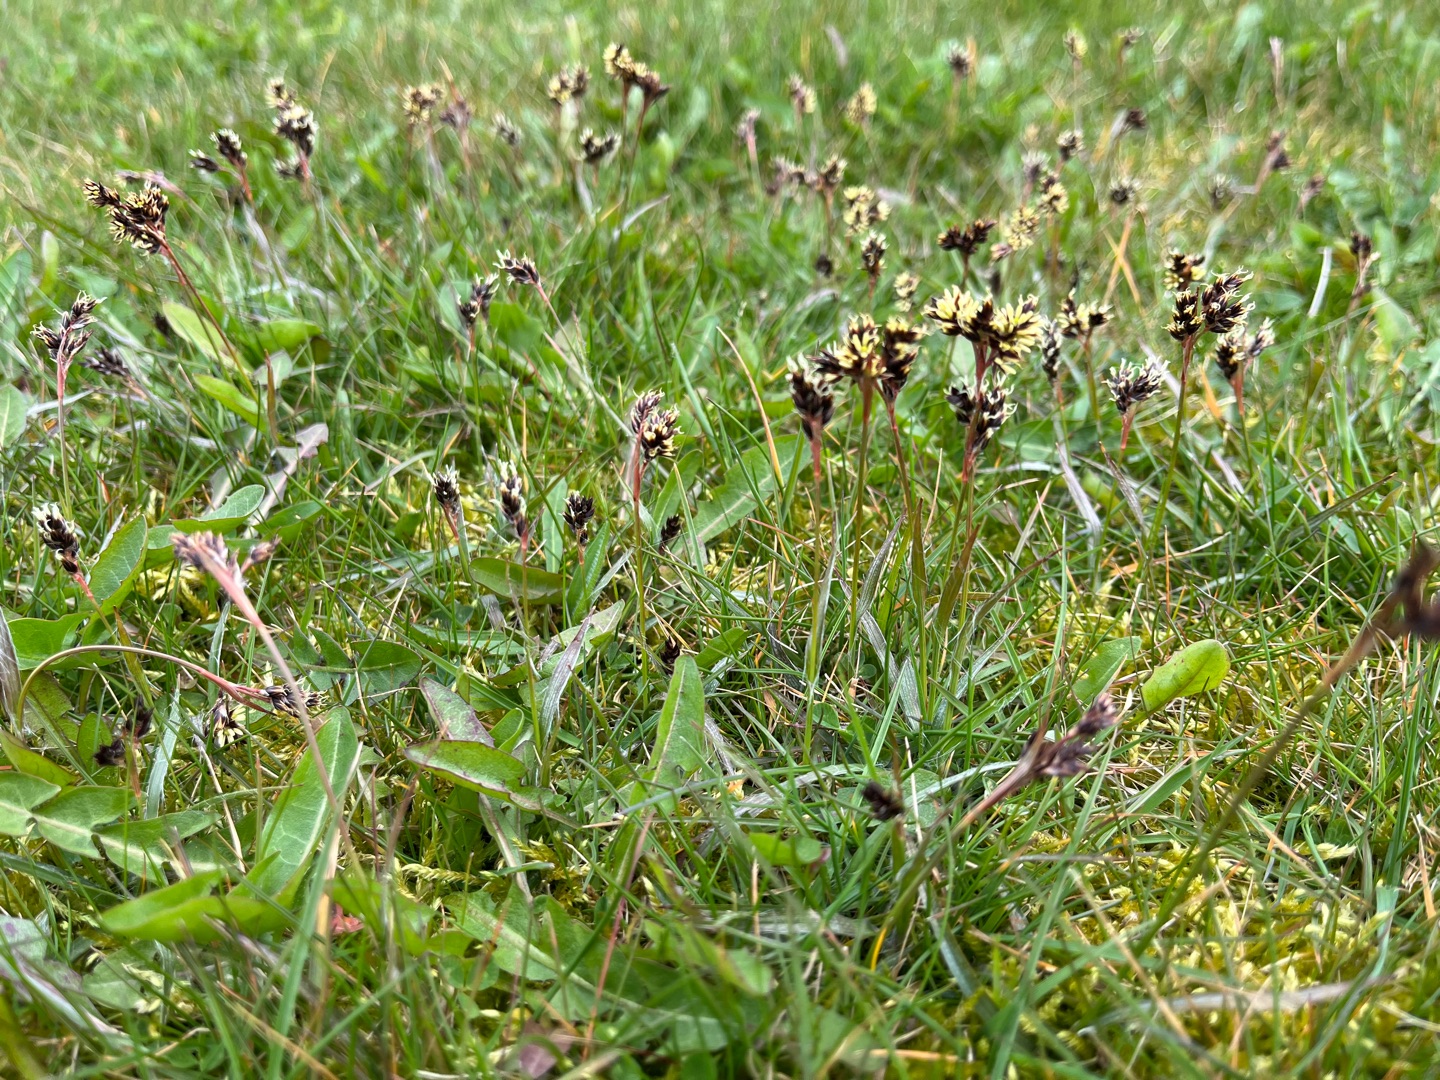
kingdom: Plantae
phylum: Tracheophyta
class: Liliopsida
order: Poales
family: Juncaceae
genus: Luzula
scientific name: Luzula campestris
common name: Mark-frytle
